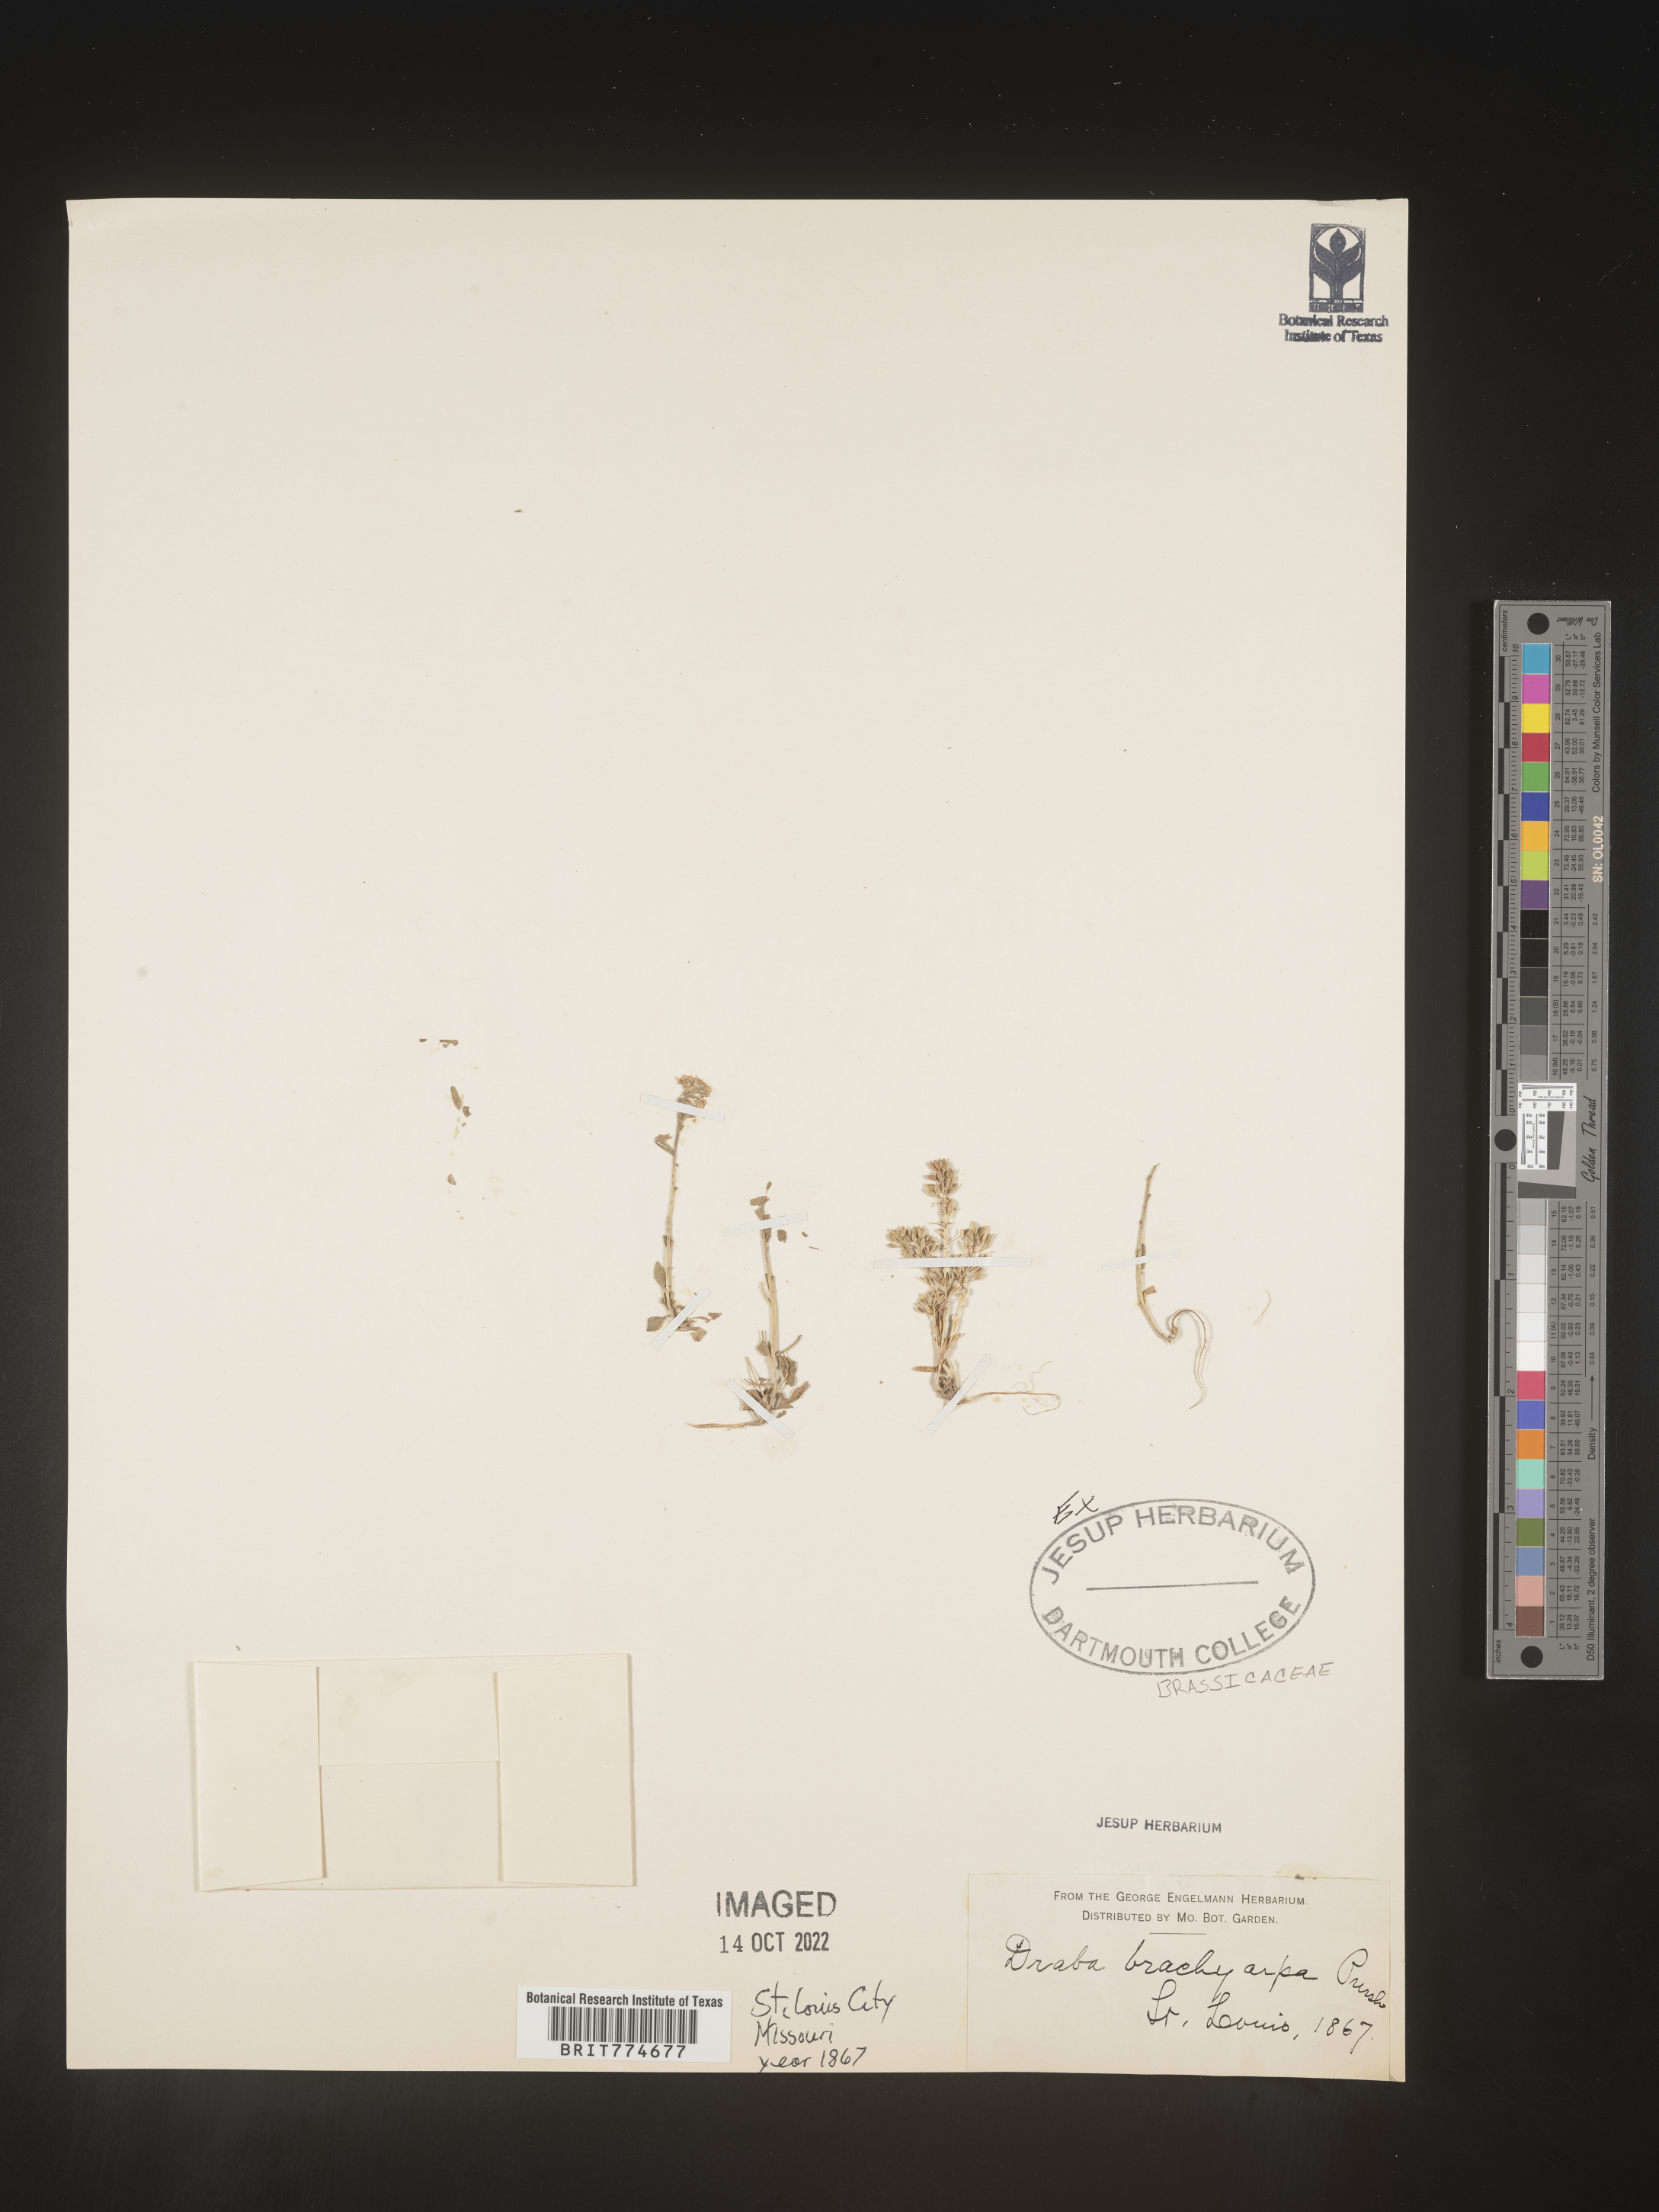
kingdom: Plantae
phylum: Tracheophyta
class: Magnoliopsida
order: Brassicales
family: Brassicaceae
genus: Abdra
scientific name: Abdra brachycarpa
